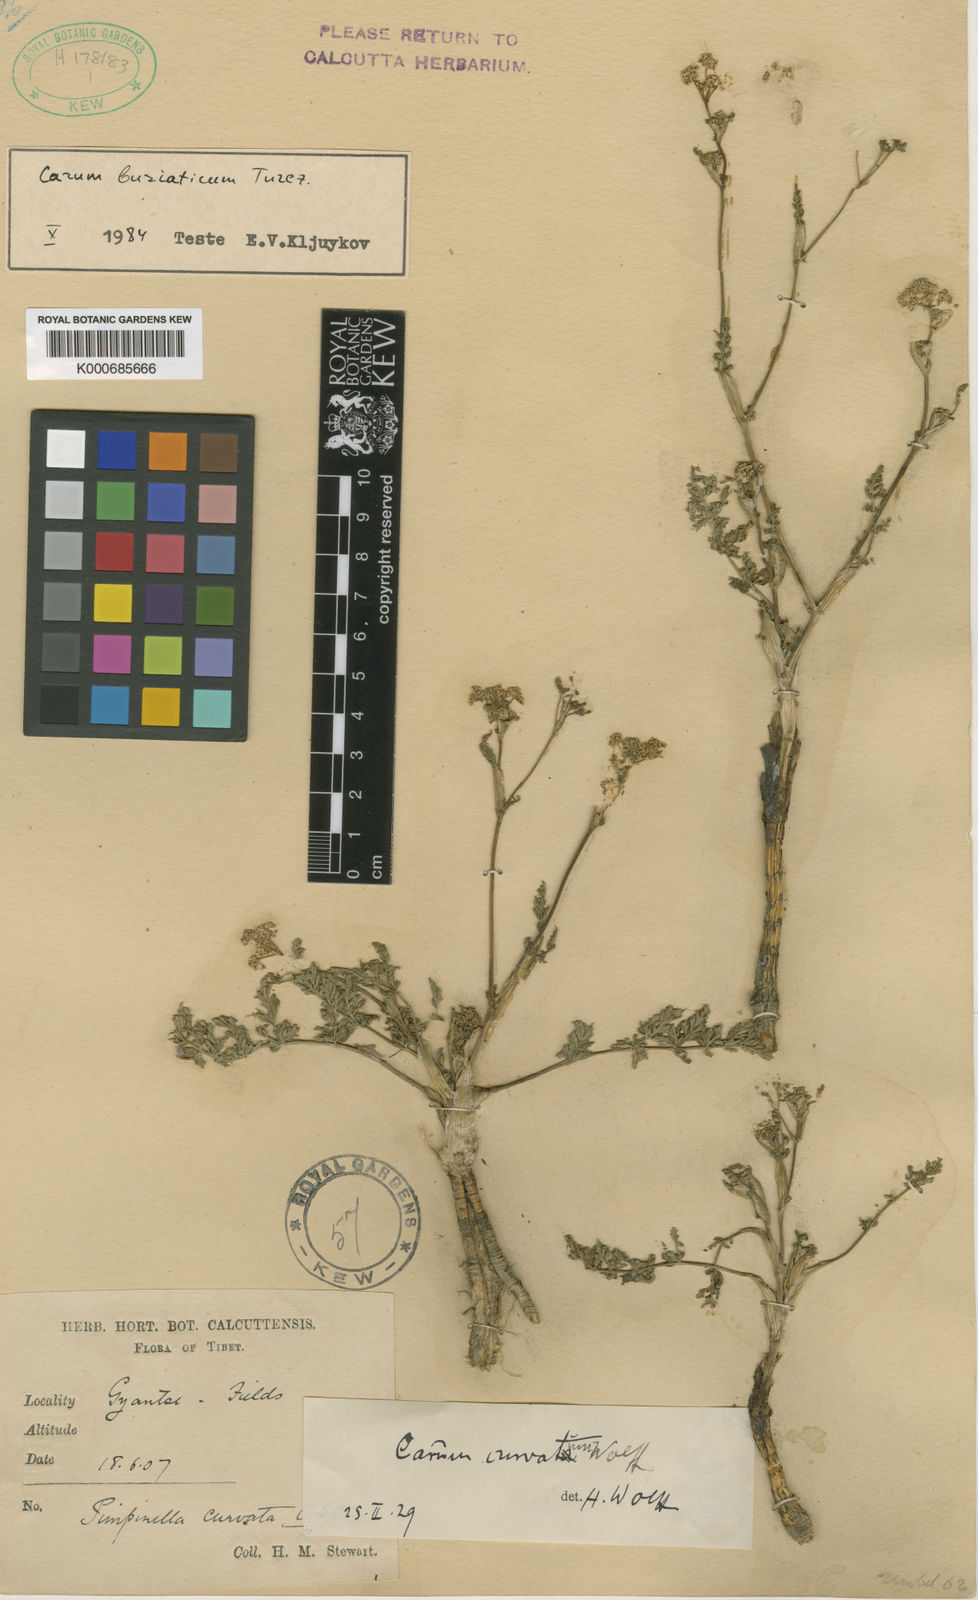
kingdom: Plantae
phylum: Tracheophyta
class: Magnoliopsida
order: Apiales
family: Apiaceae
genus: Carum
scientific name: Carum buriaticum
